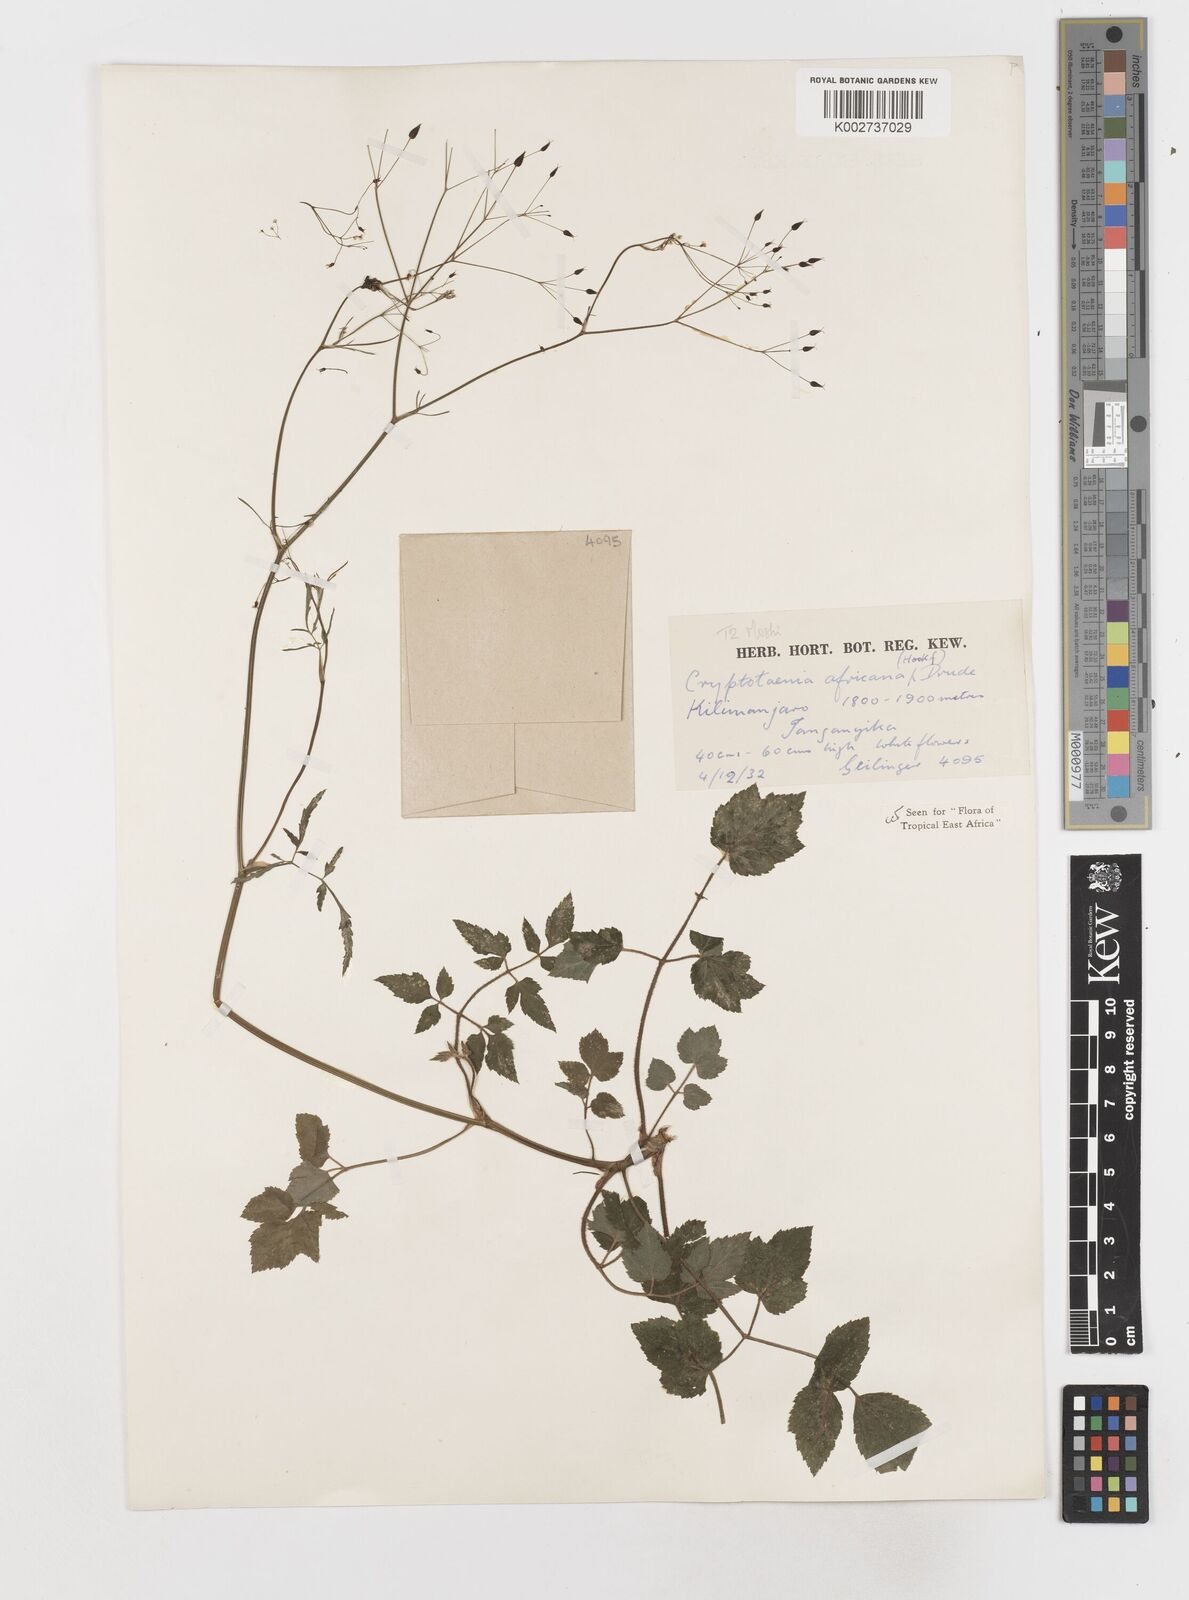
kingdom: Plantae
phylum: Tracheophyta
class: Magnoliopsida
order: Apiales
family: Apiaceae
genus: Cryptotaenia
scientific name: Cryptotaenia africana
